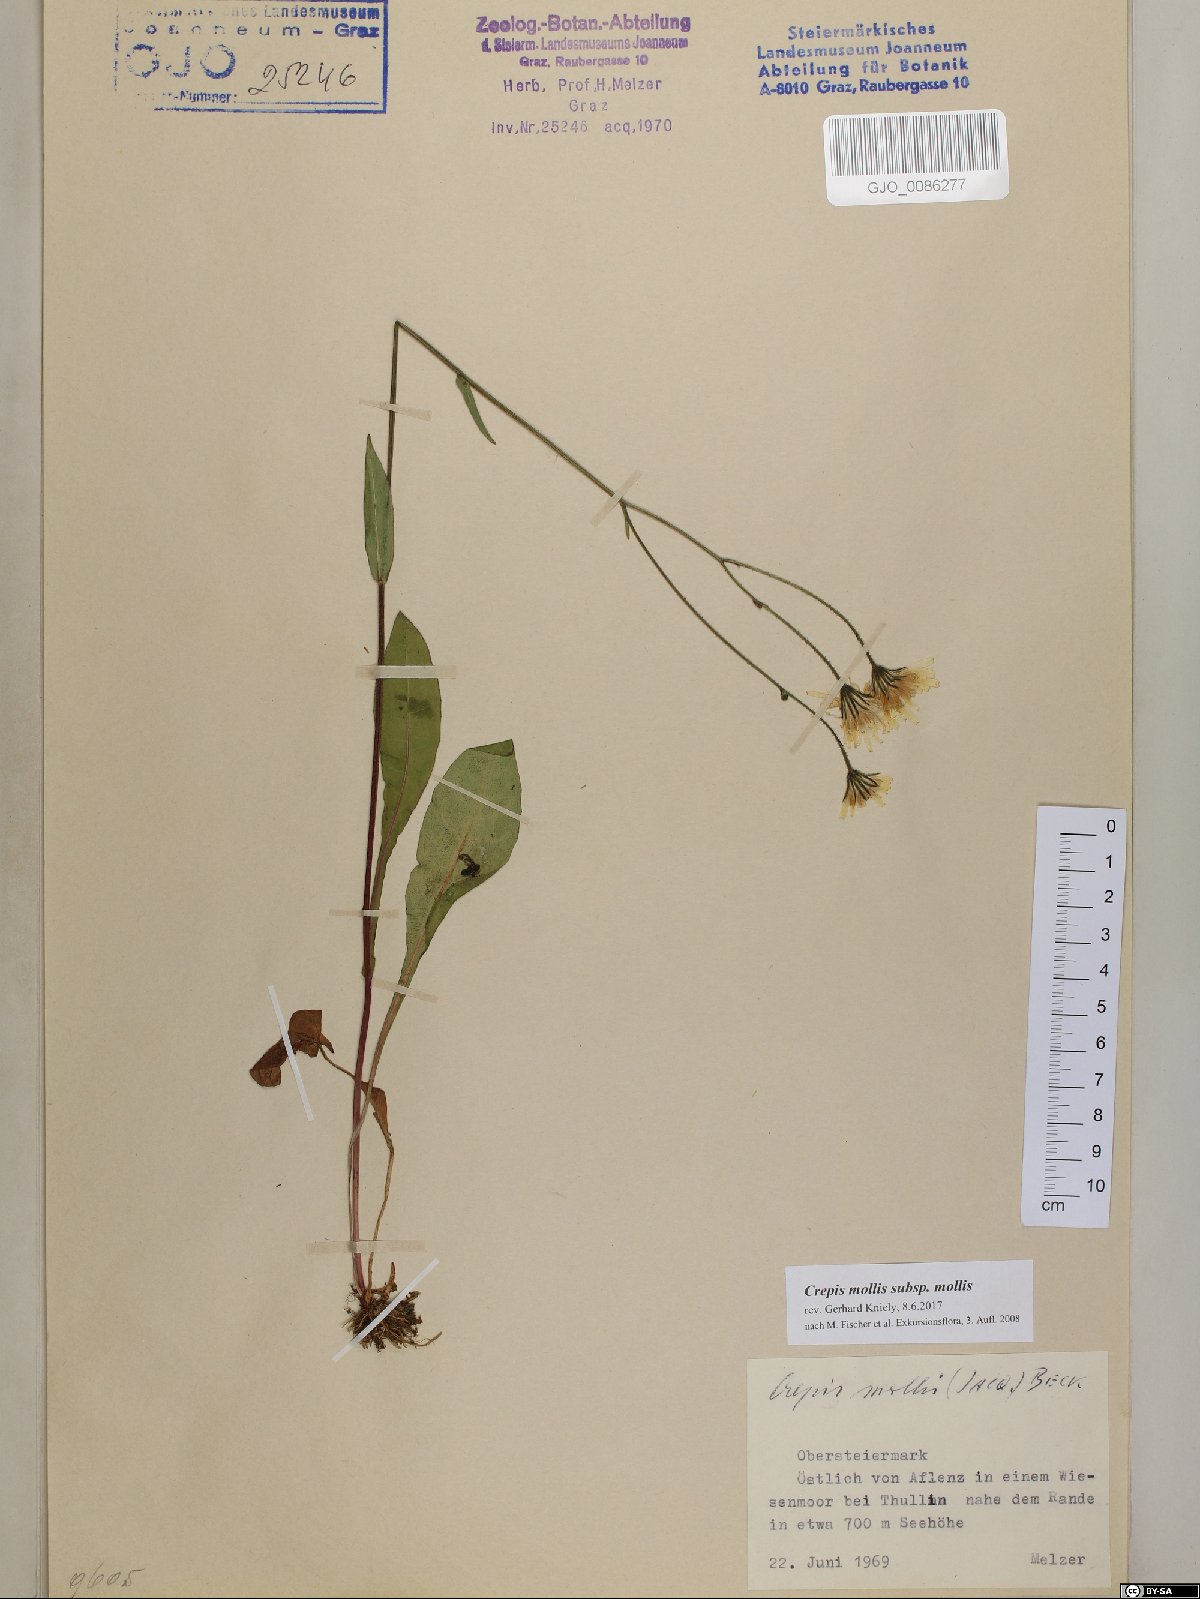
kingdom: Plantae
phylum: Tracheophyta
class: Magnoliopsida
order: Asterales
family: Asteraceae
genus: Crepis
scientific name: Crepis mollis
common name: Northern hawk's-beard
